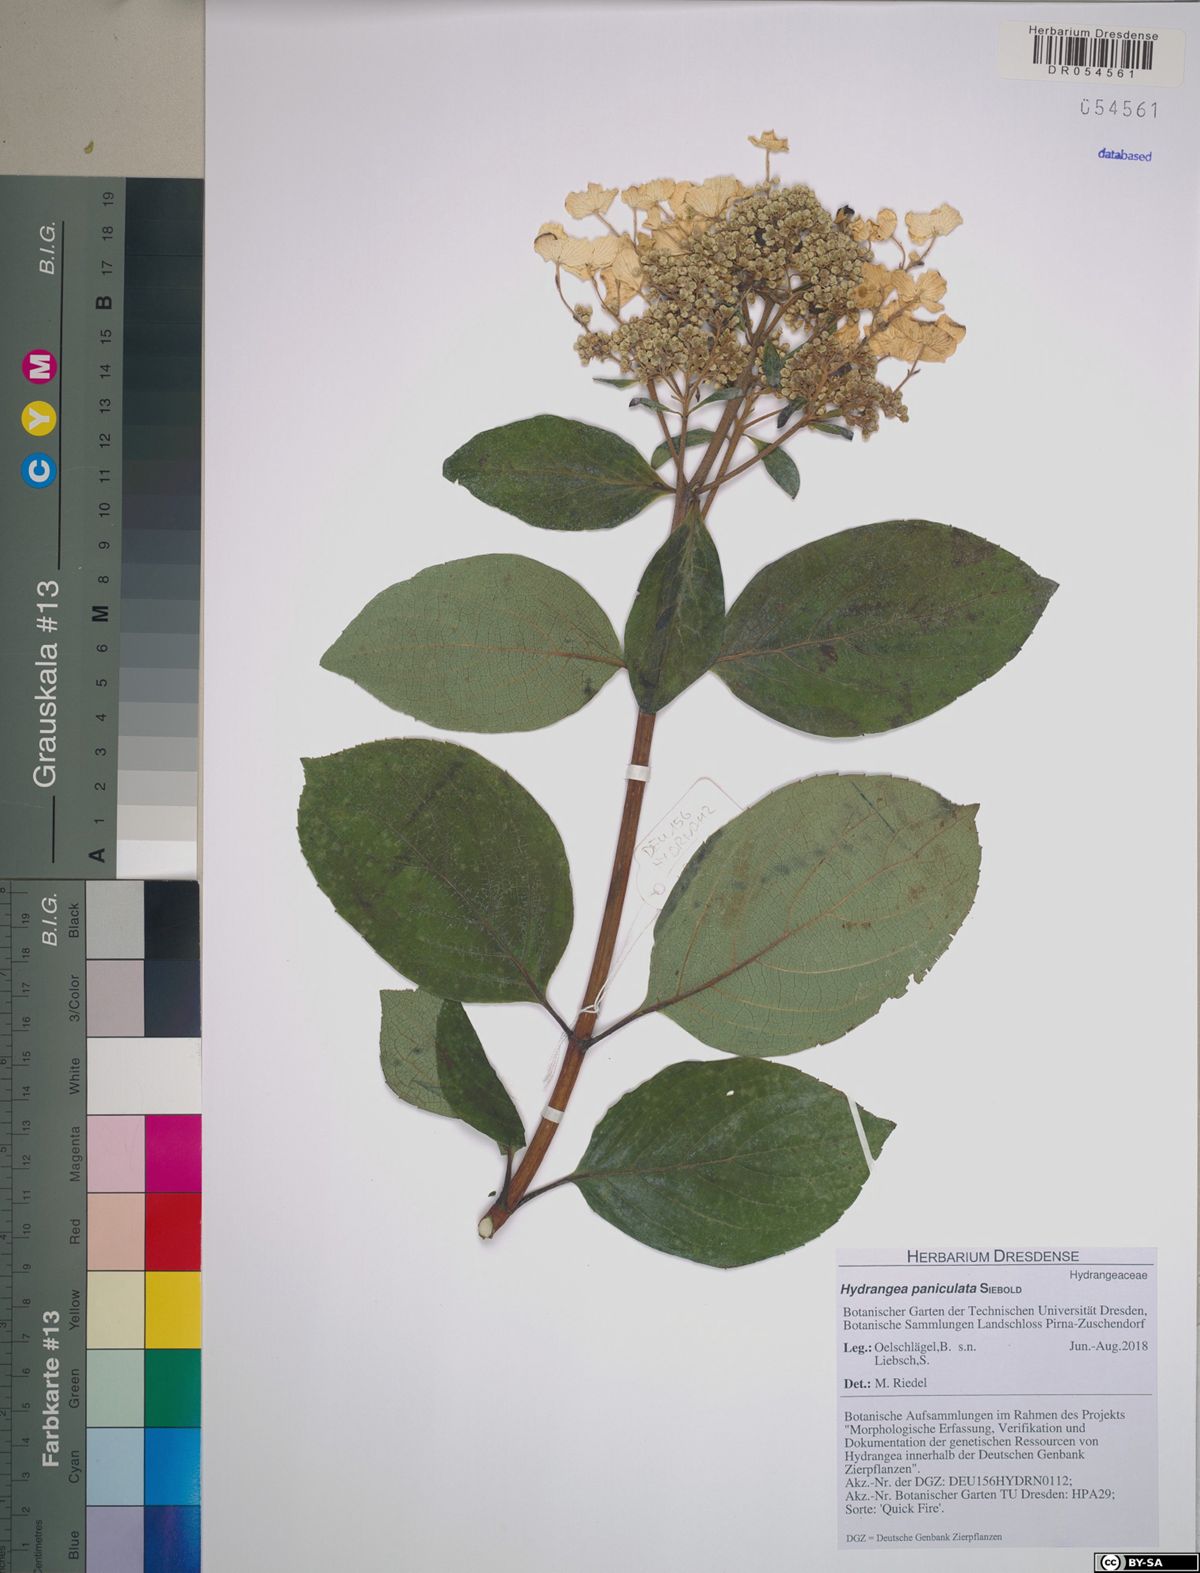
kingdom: Plantae
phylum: Tracheophyta
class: Magnoliopsida
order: Cornales
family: Hydrangeaceae
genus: Hydrangea
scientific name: Hydrangea paniculata
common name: Panicled hydrangea
